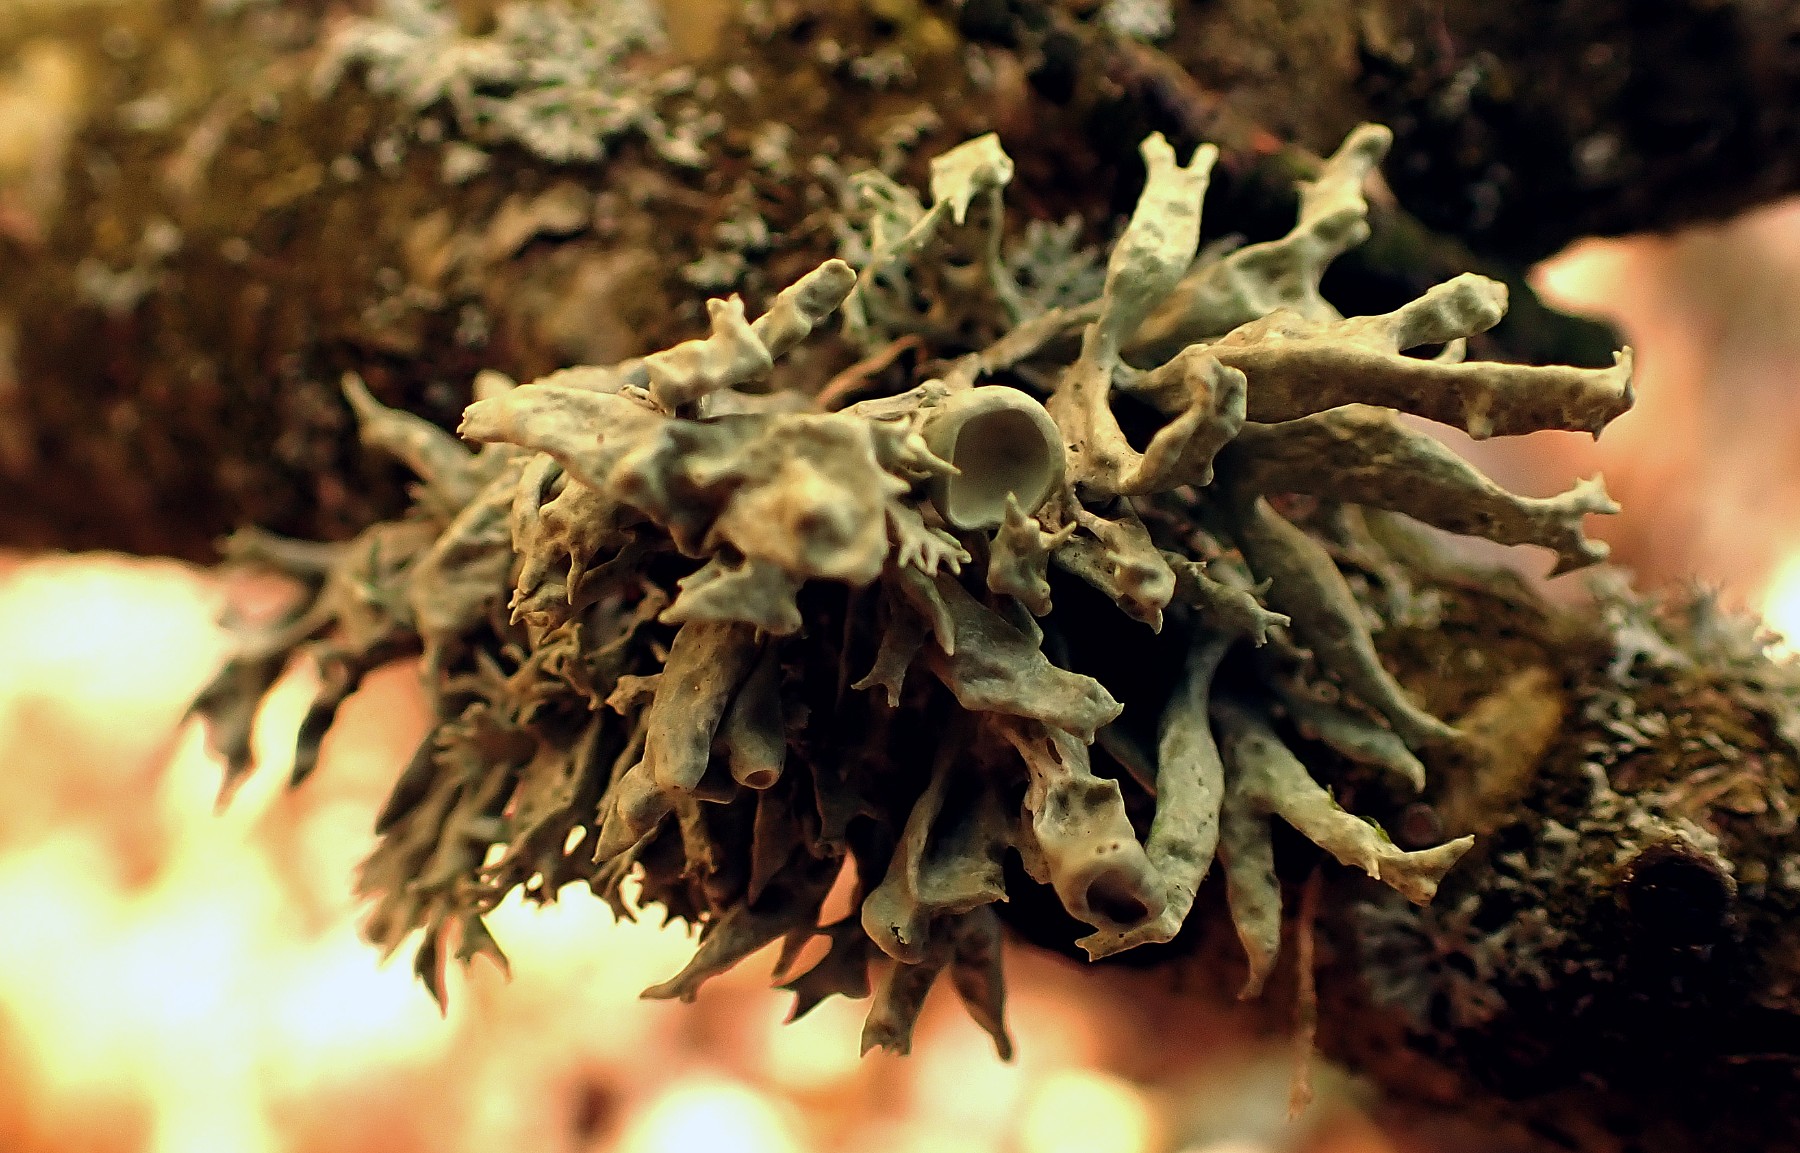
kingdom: Fungi
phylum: Ascomycota
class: Lecanoromycetes
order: Lecanorales
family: Ramalinaceae
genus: Ramalina
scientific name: Ramalina fastigiata
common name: tue-grenlav
